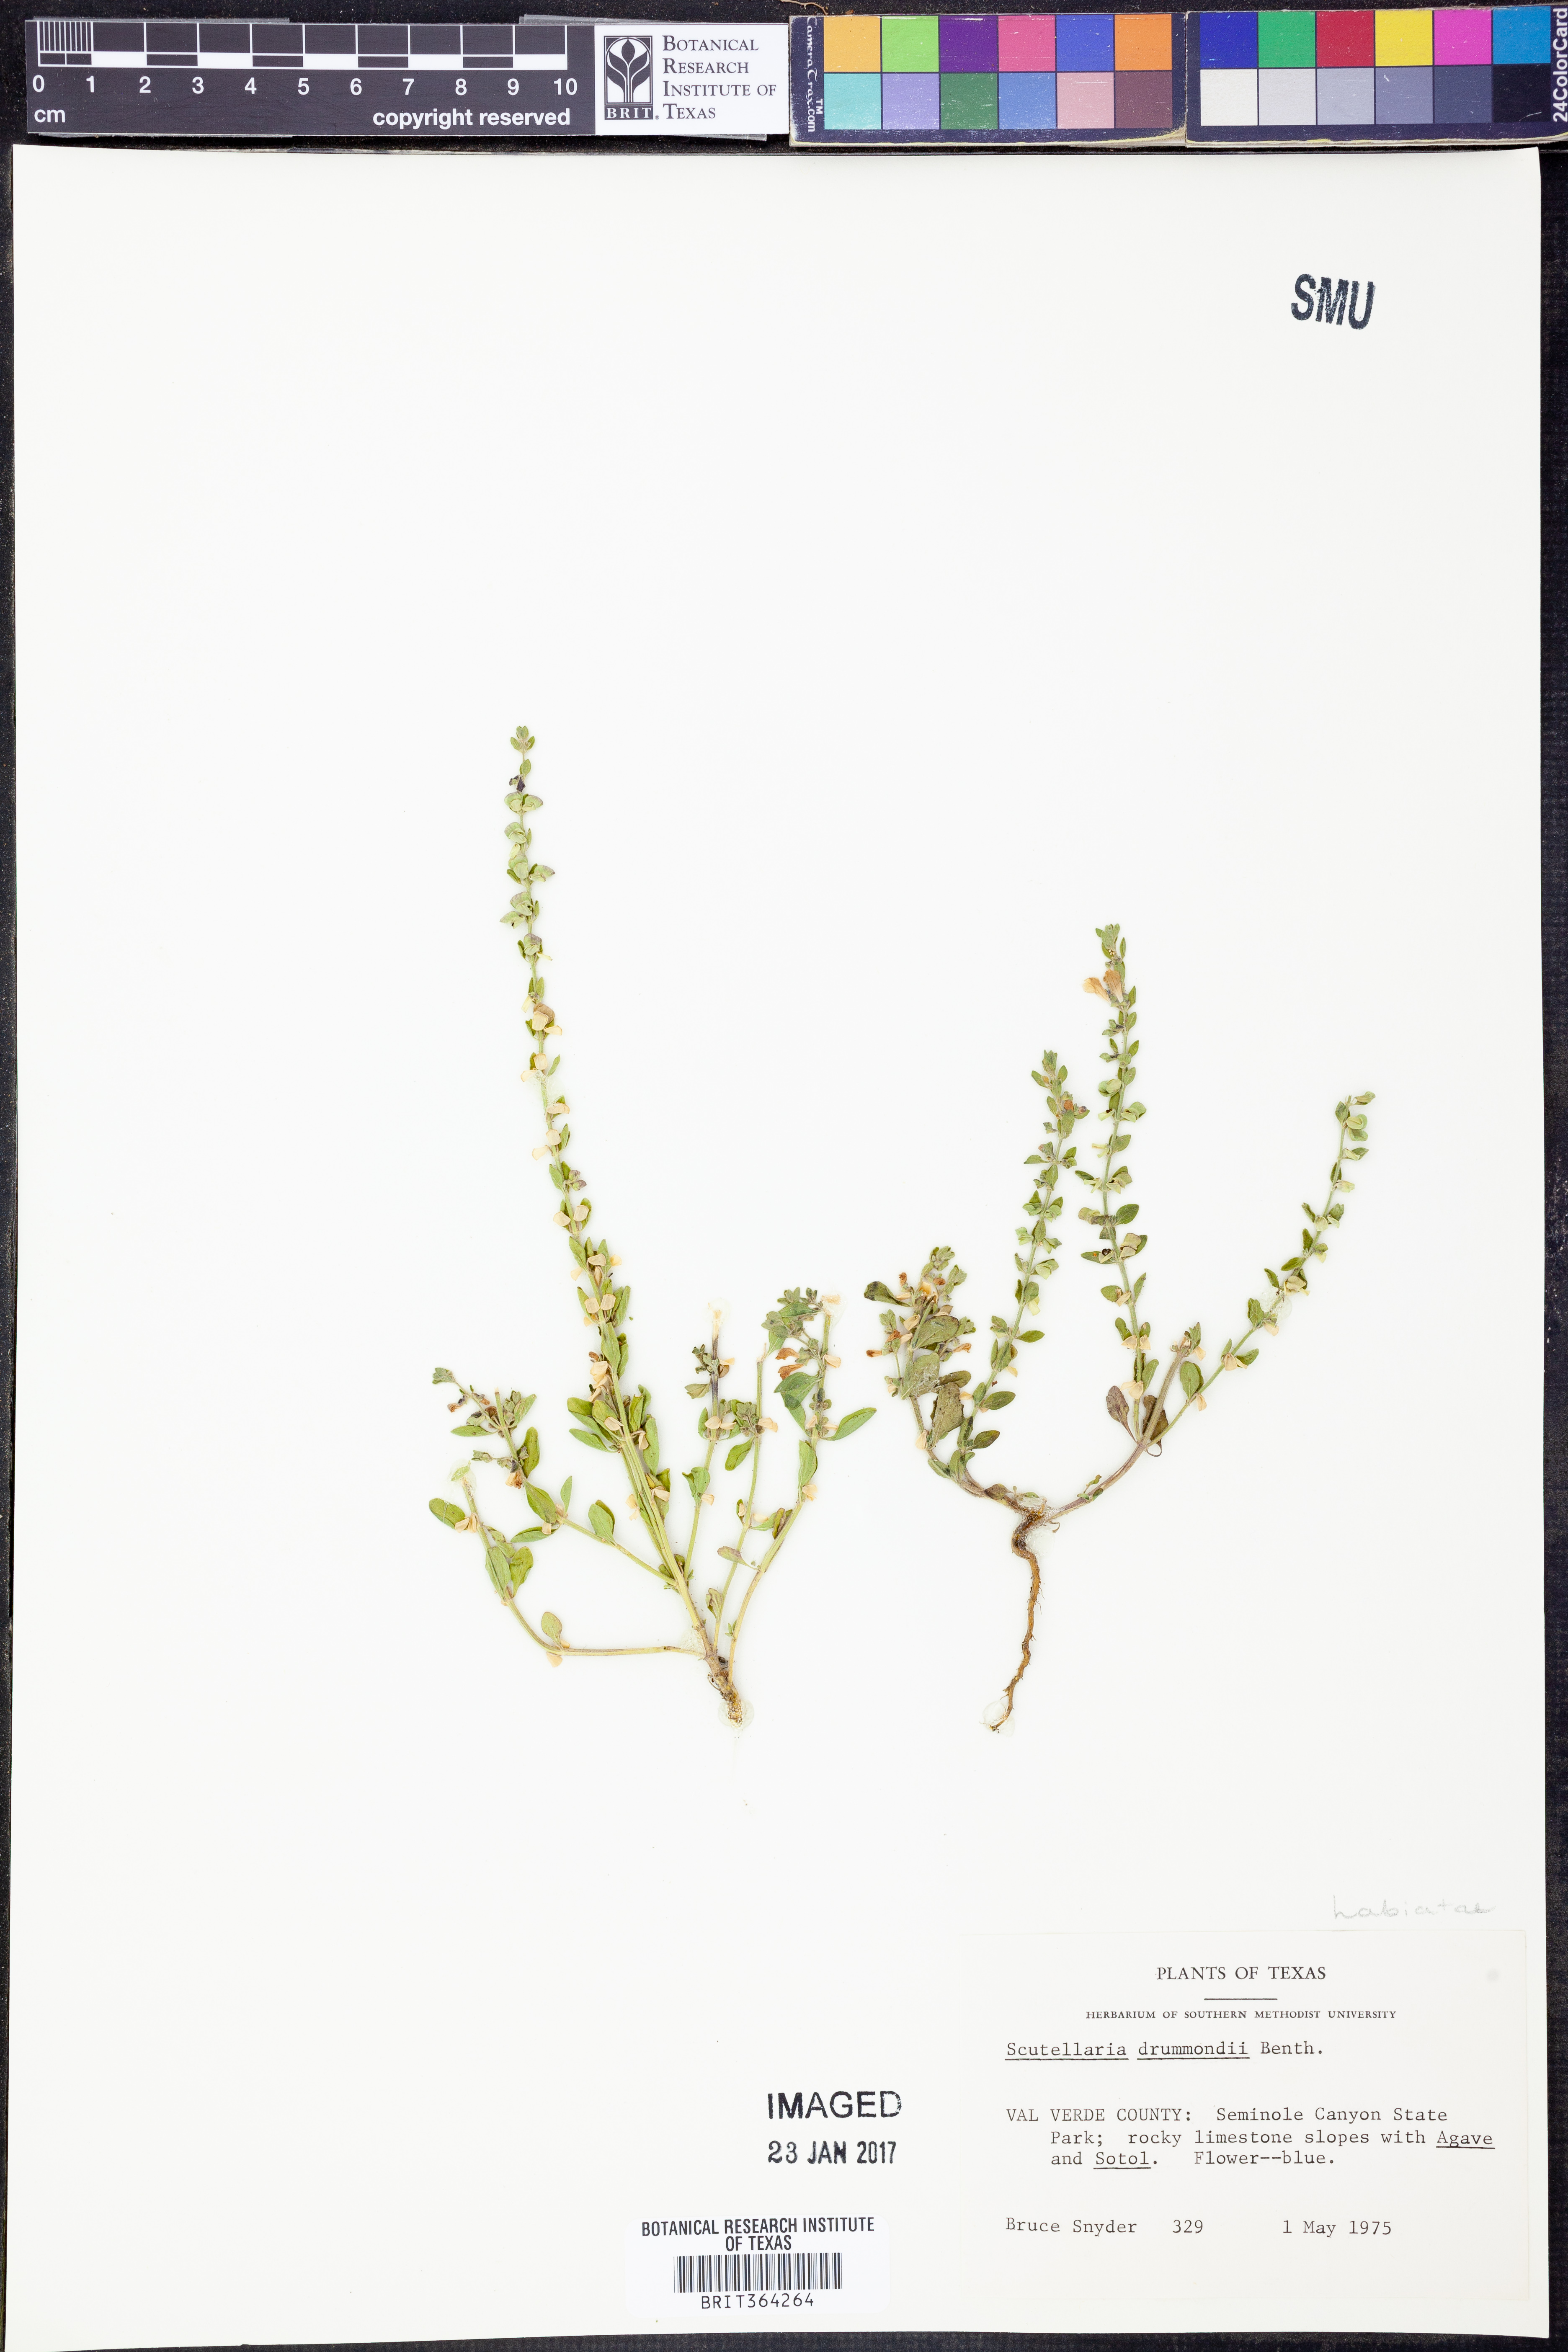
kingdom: Plantae
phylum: Tracheophyta
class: Magnoliopsida
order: Lamiales
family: Lamiaceae
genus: Scutellaria
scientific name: Scutellaria drummondii
